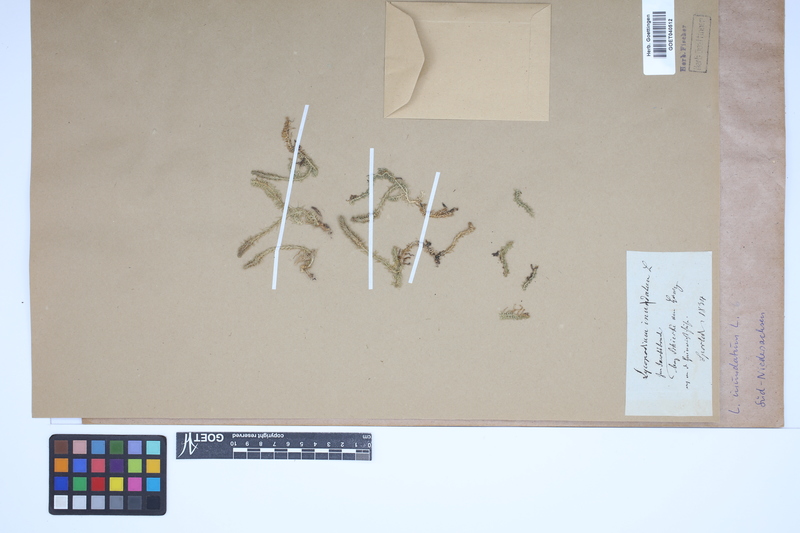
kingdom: Plantae
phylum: Tracheophyta
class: Lycopodiopsida
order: Lycopodiales
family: Lycopodiaceae
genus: Lycopodiella
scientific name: Lycopodiella inundata
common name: Marsh clubmoss
